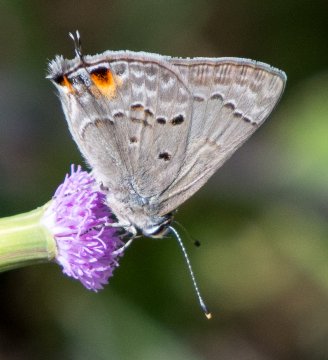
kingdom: Animalia
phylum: Arthropoda
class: Insecta
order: Lepidoptera
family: Lycaenidae
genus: Callicista
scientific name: Callicista columella
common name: Mallow Scrub-Hairstreak
